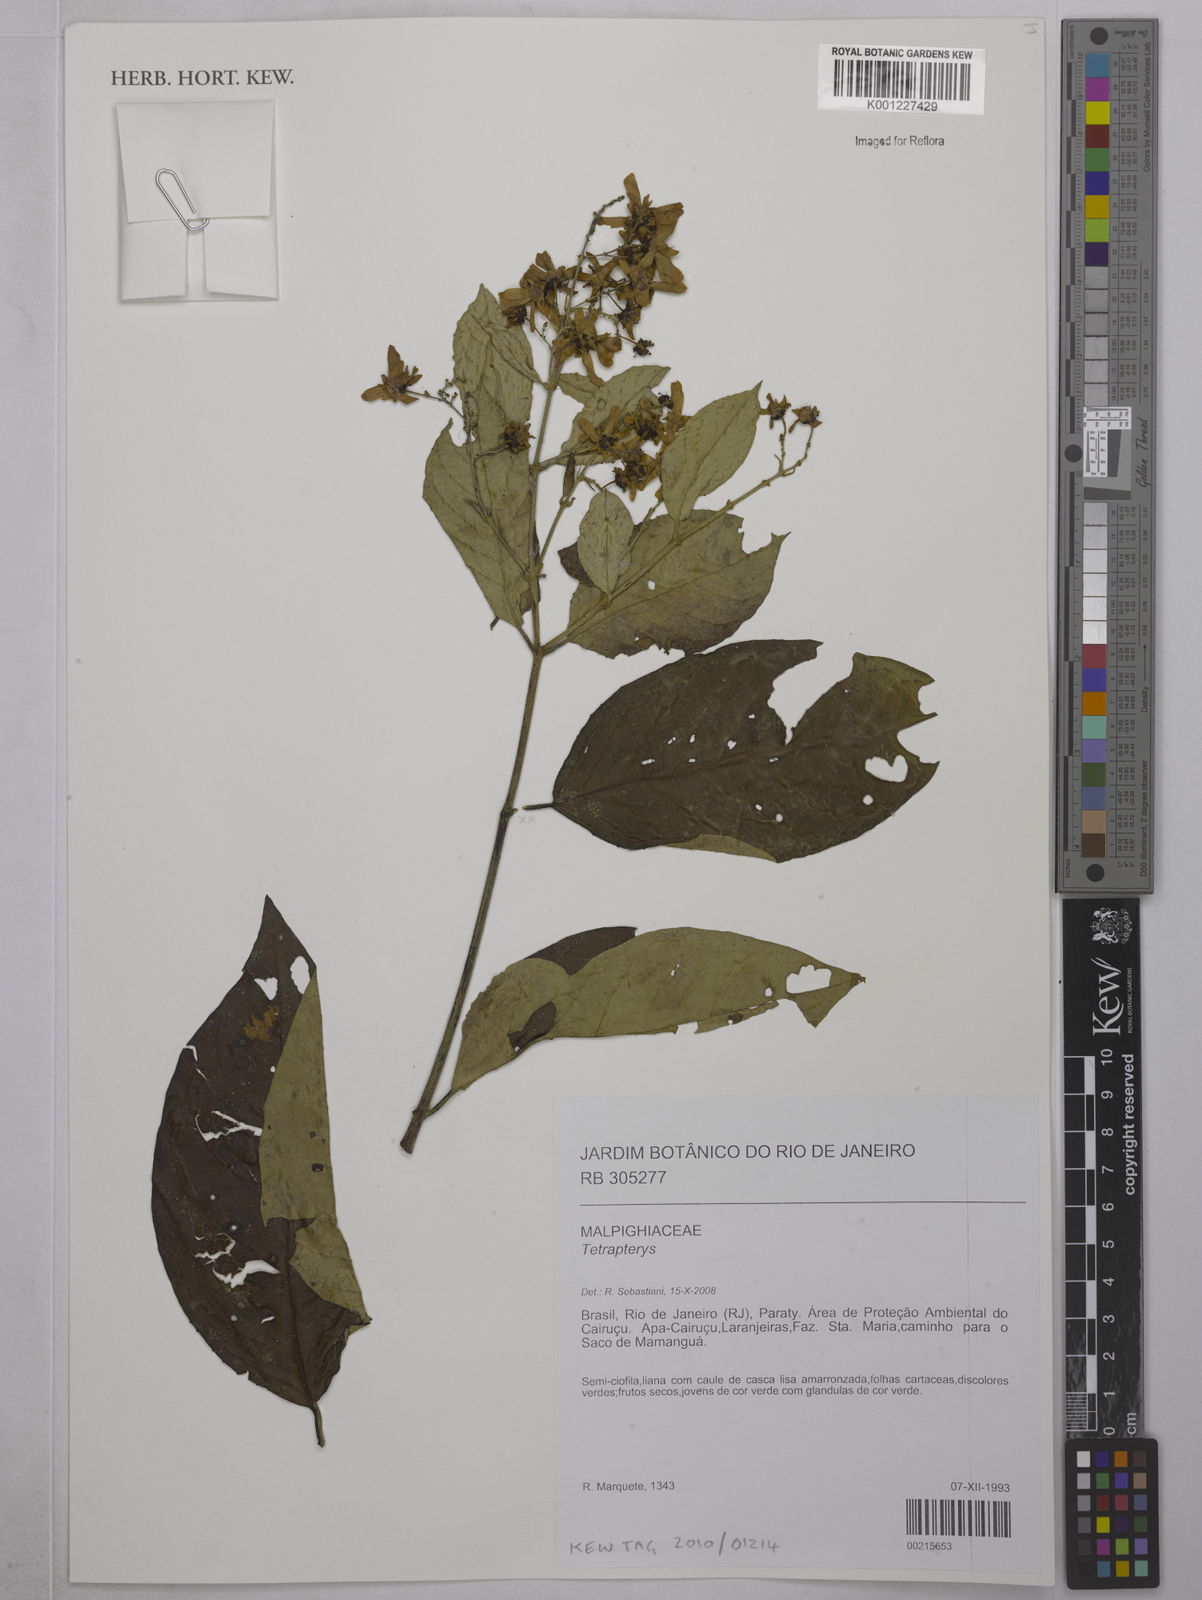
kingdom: Plantae
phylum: Tracheophyta
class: Magnoliopsida
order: Malpighiales
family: Malpighiaceae
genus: Tetrapterys
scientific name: Tetrapterys
